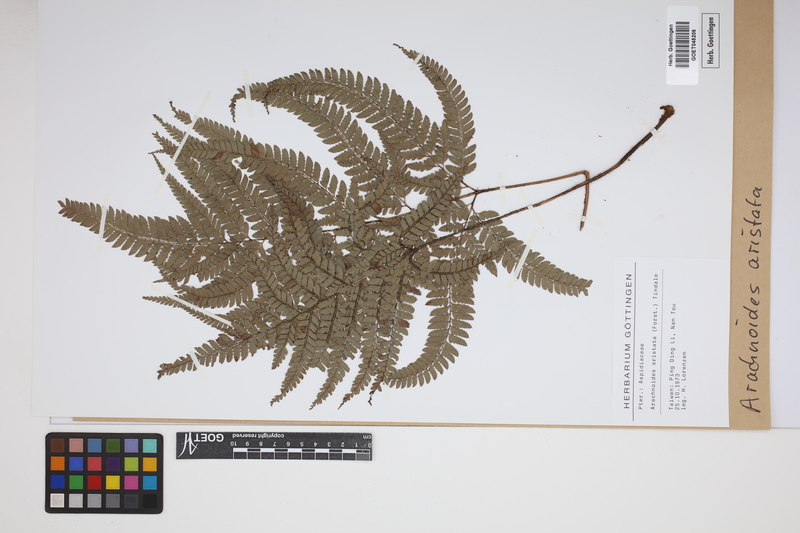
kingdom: Plantae
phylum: Tracheophyta
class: Polypodiopsida
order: Polypodiales
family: Dryopteridaceae
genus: Arachniodes
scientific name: Arachniodes aristata
